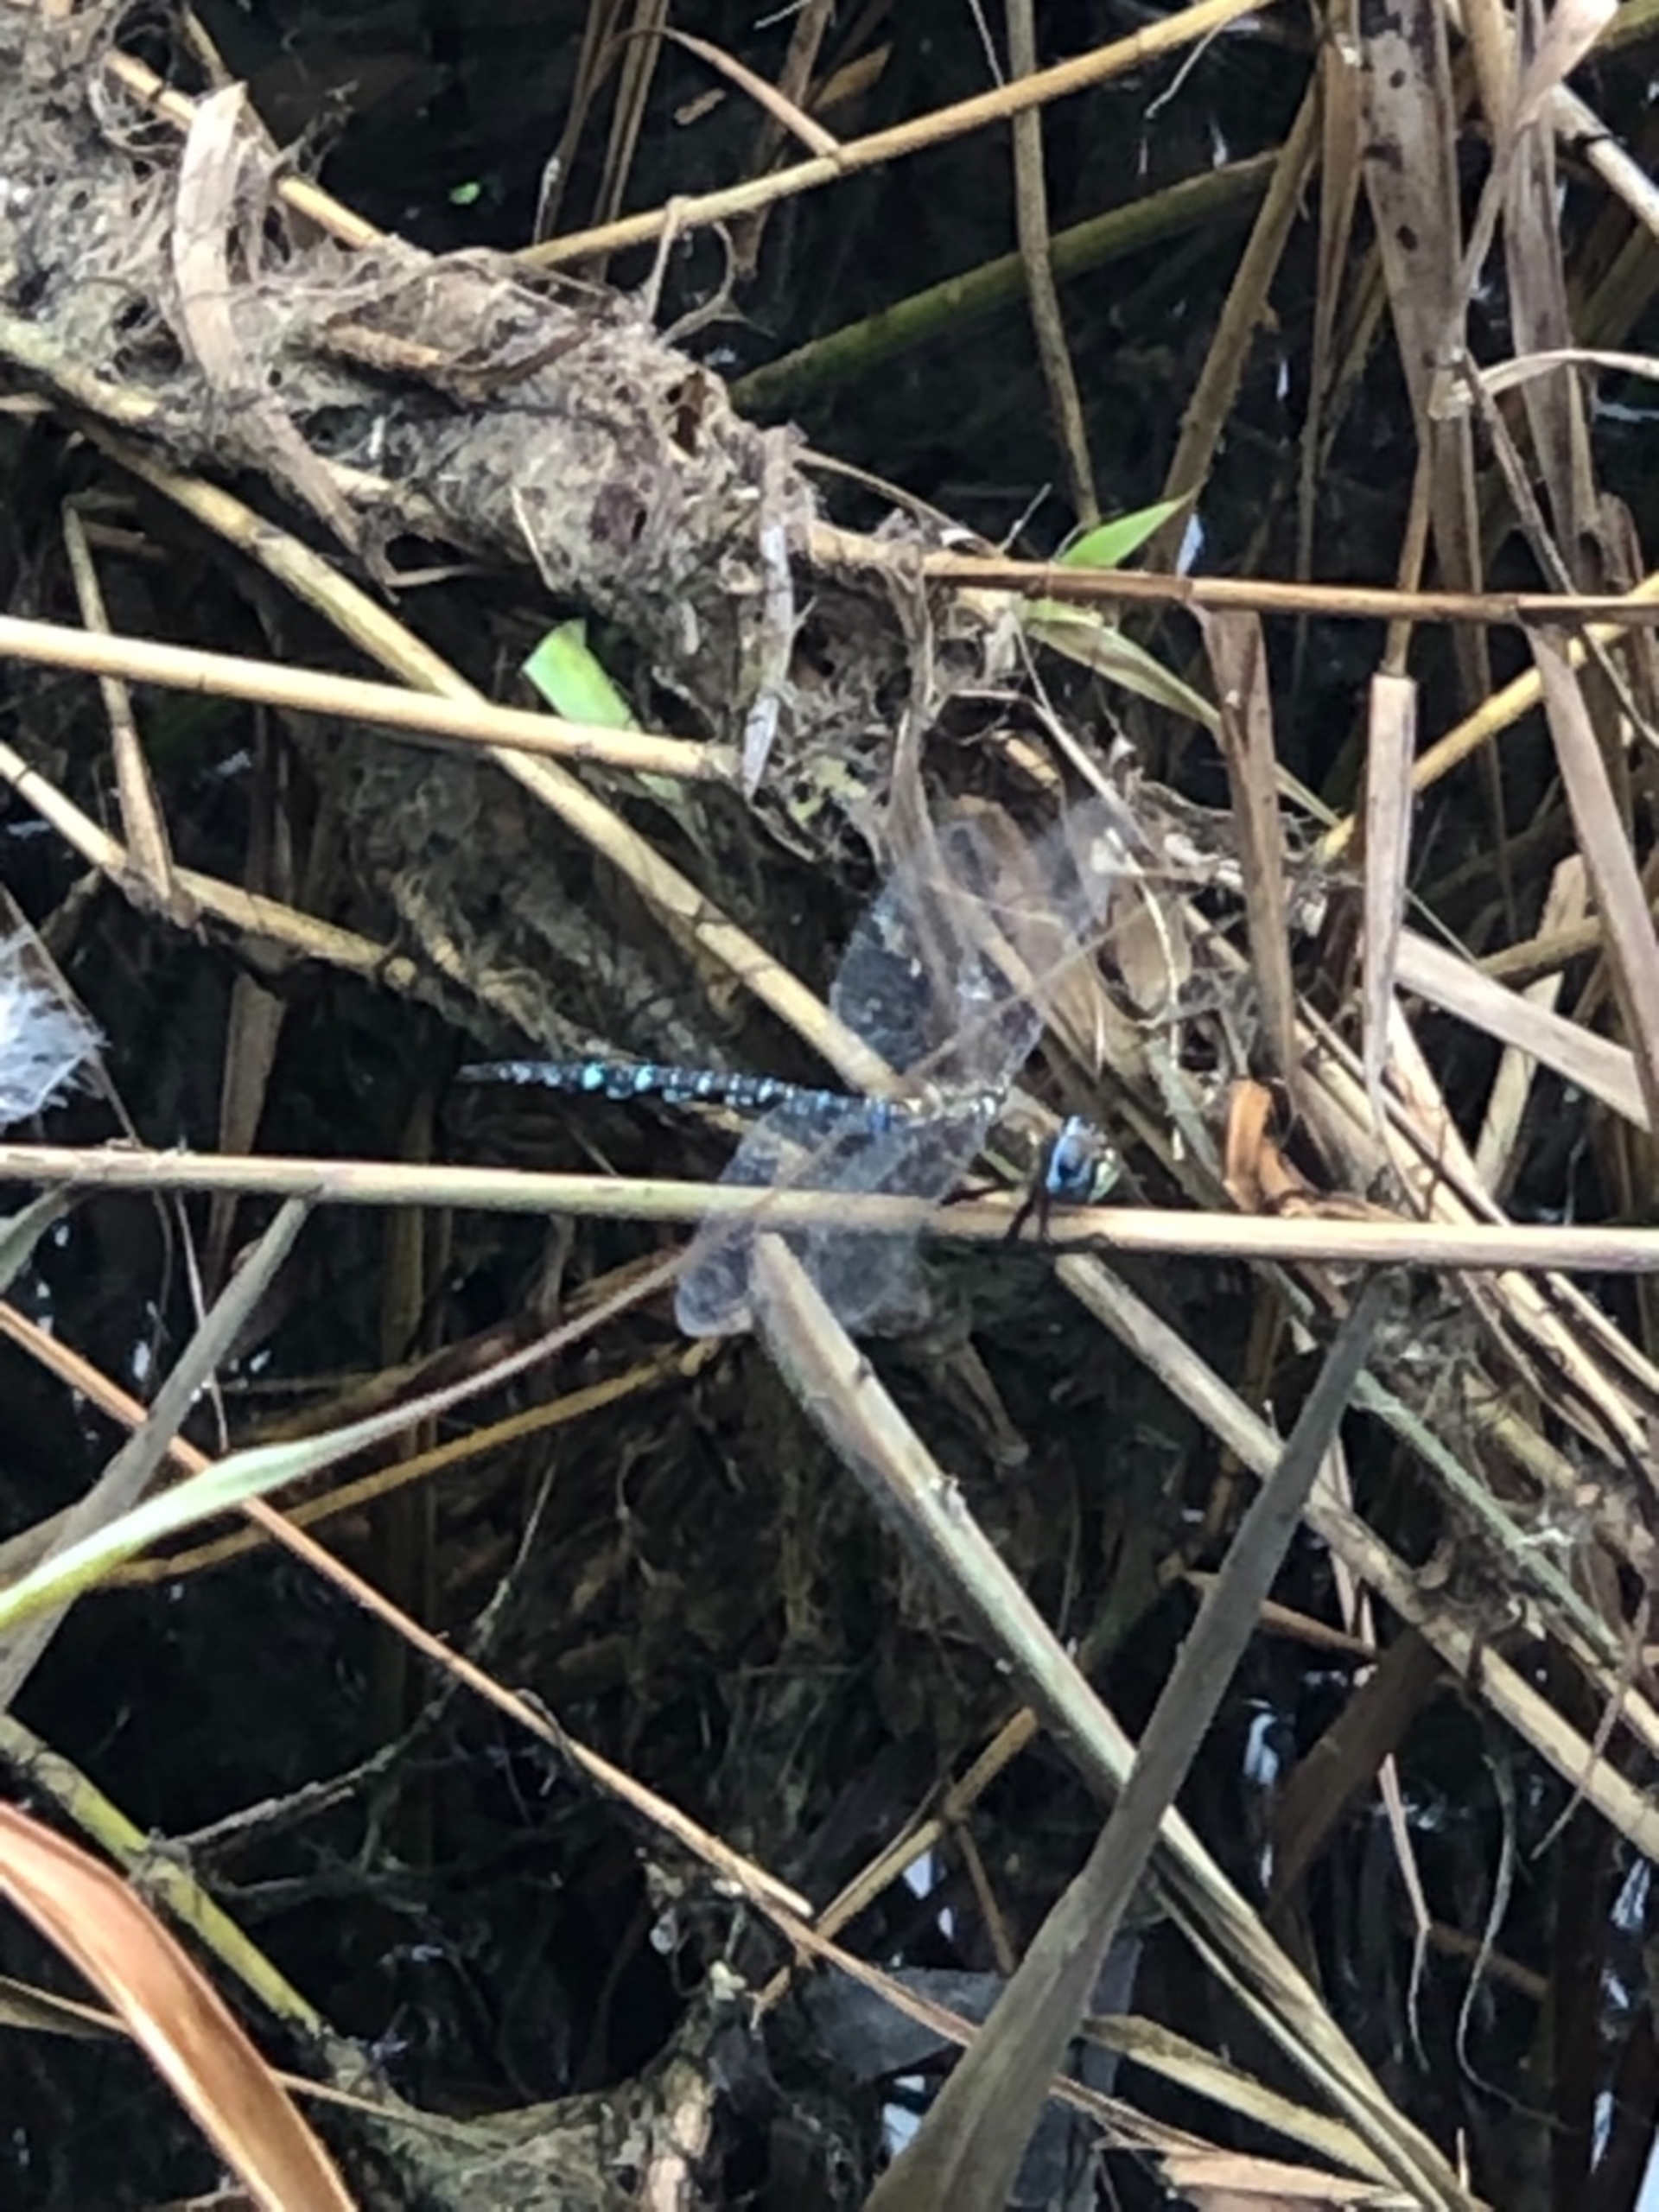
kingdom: Animalia
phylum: Arthropoda
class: Insecta
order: Odonata
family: Aeshnidae
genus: Aeshna
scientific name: Aeshna mixta
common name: Efterårs-mosaikguldsmed
